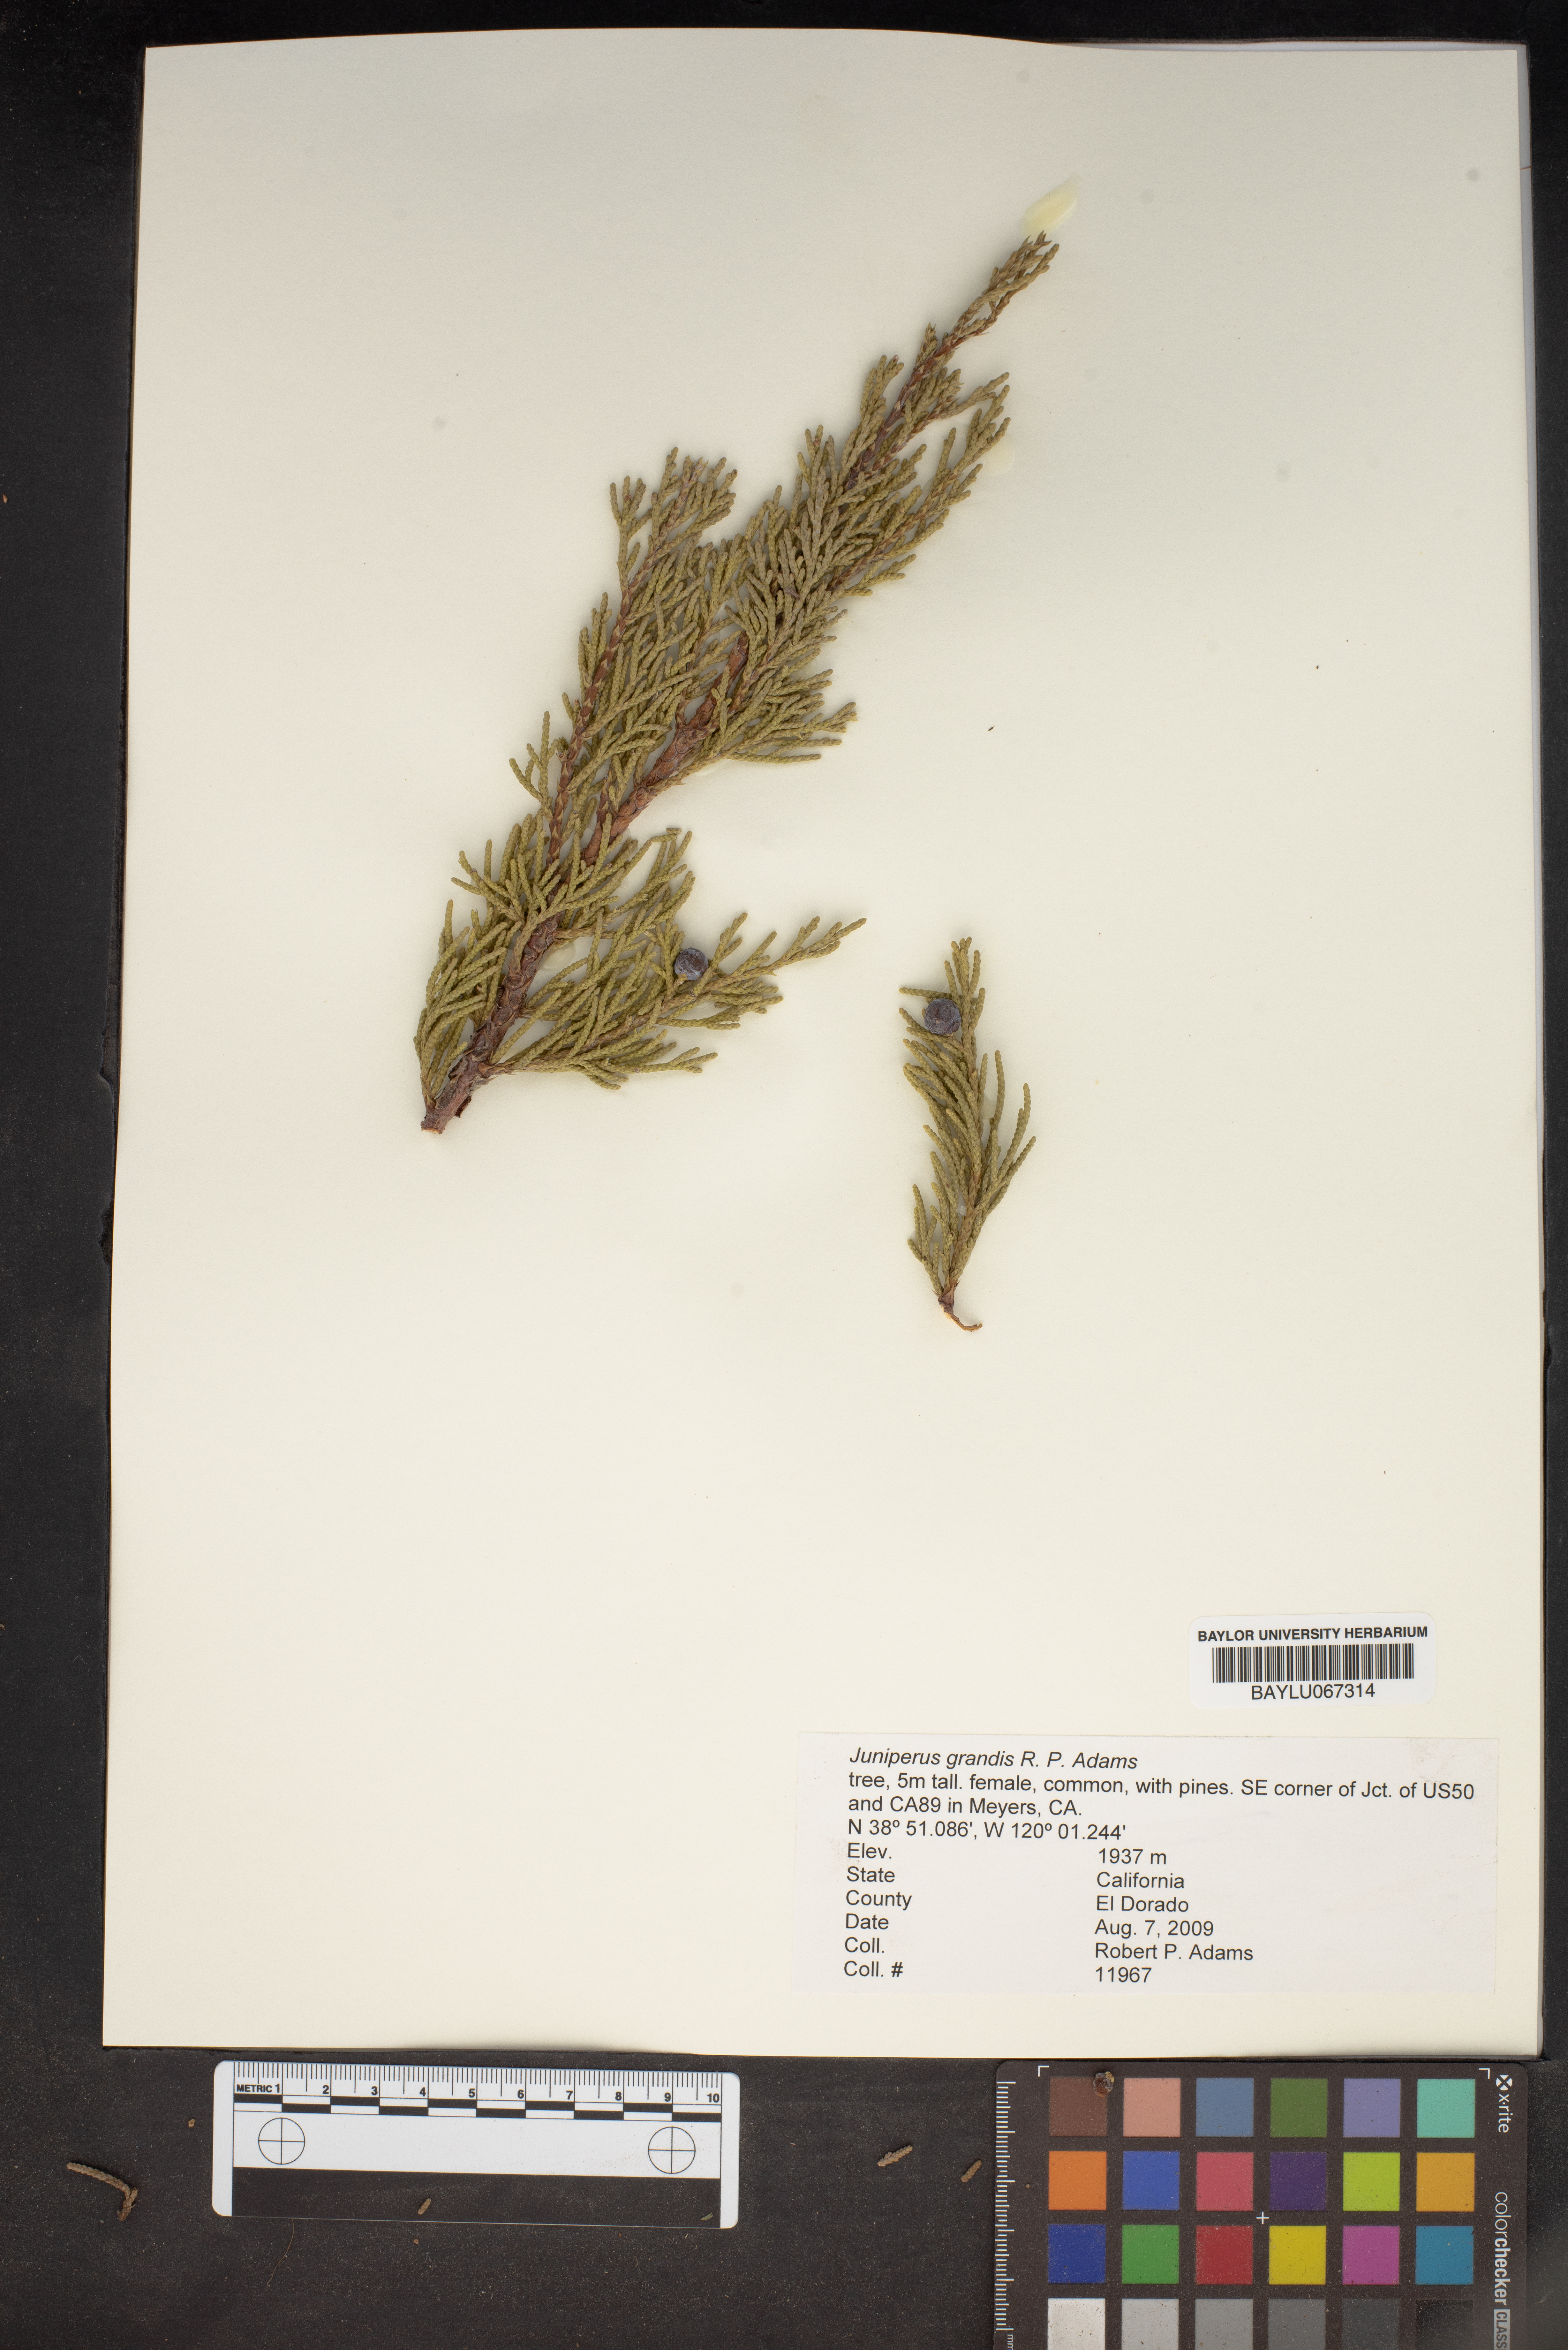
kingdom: Plantae
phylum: Tracheophyta
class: Pinopsida
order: Pinales
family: Cupressaceae
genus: Juniperus
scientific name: Juniperus occidentalis
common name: Western juniper
